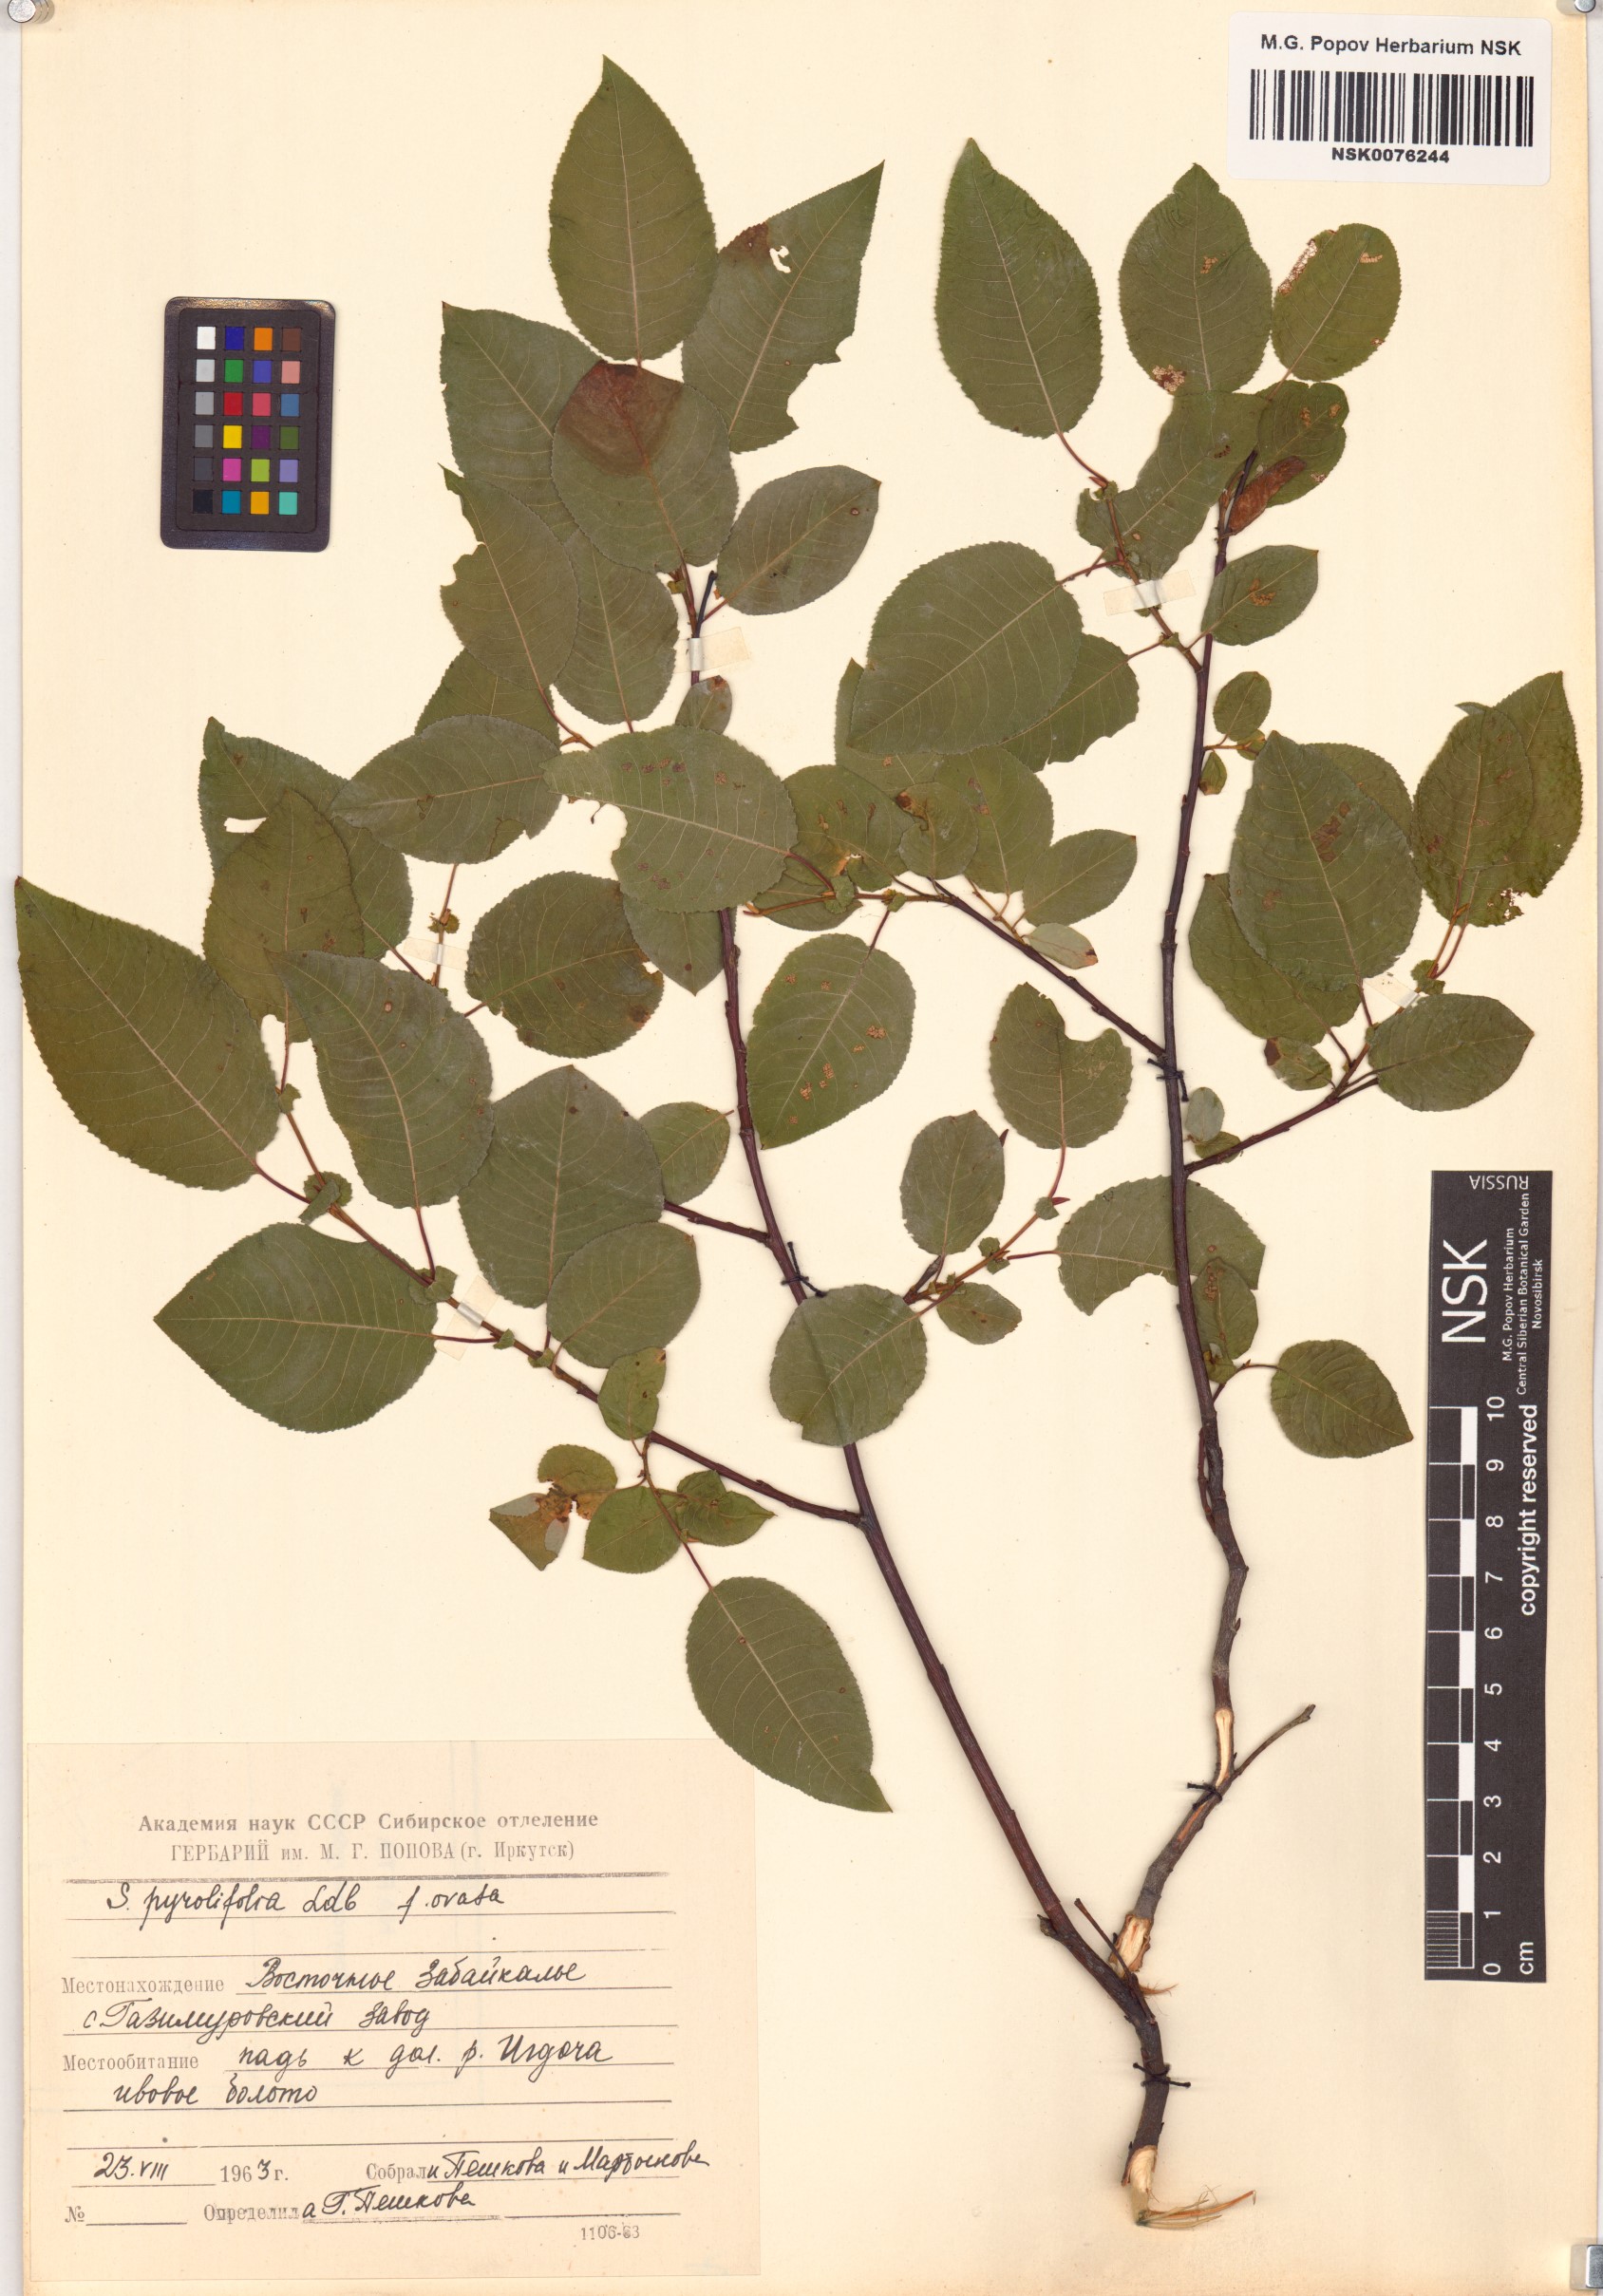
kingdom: Plantae
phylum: Tracheophyta
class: Magnoliopsida
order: Malpighiales
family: Salicaceae
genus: Salix
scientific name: Salix pyrolifolia
